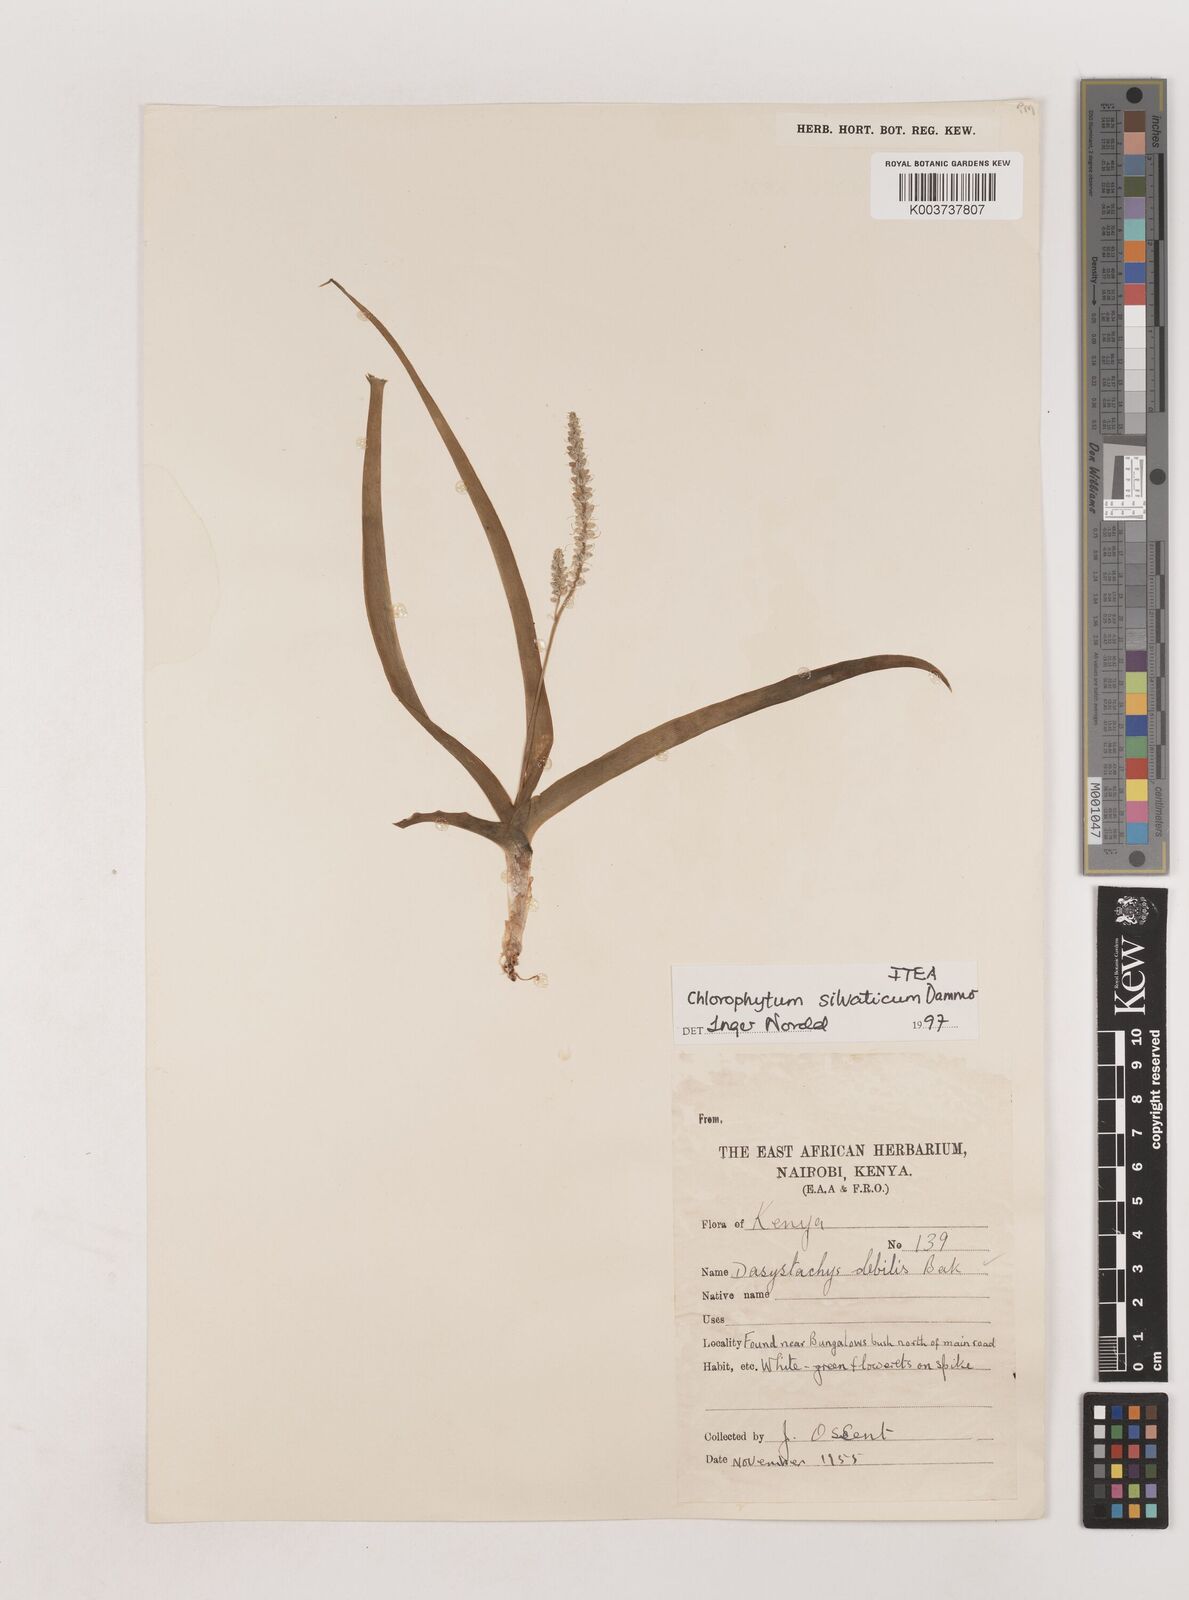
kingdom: Plantae
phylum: Tracheophyta
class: Liliopsida
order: Asparagales
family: Asparagaceae
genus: Chlorophytum
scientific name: Chlorophytum africanum
